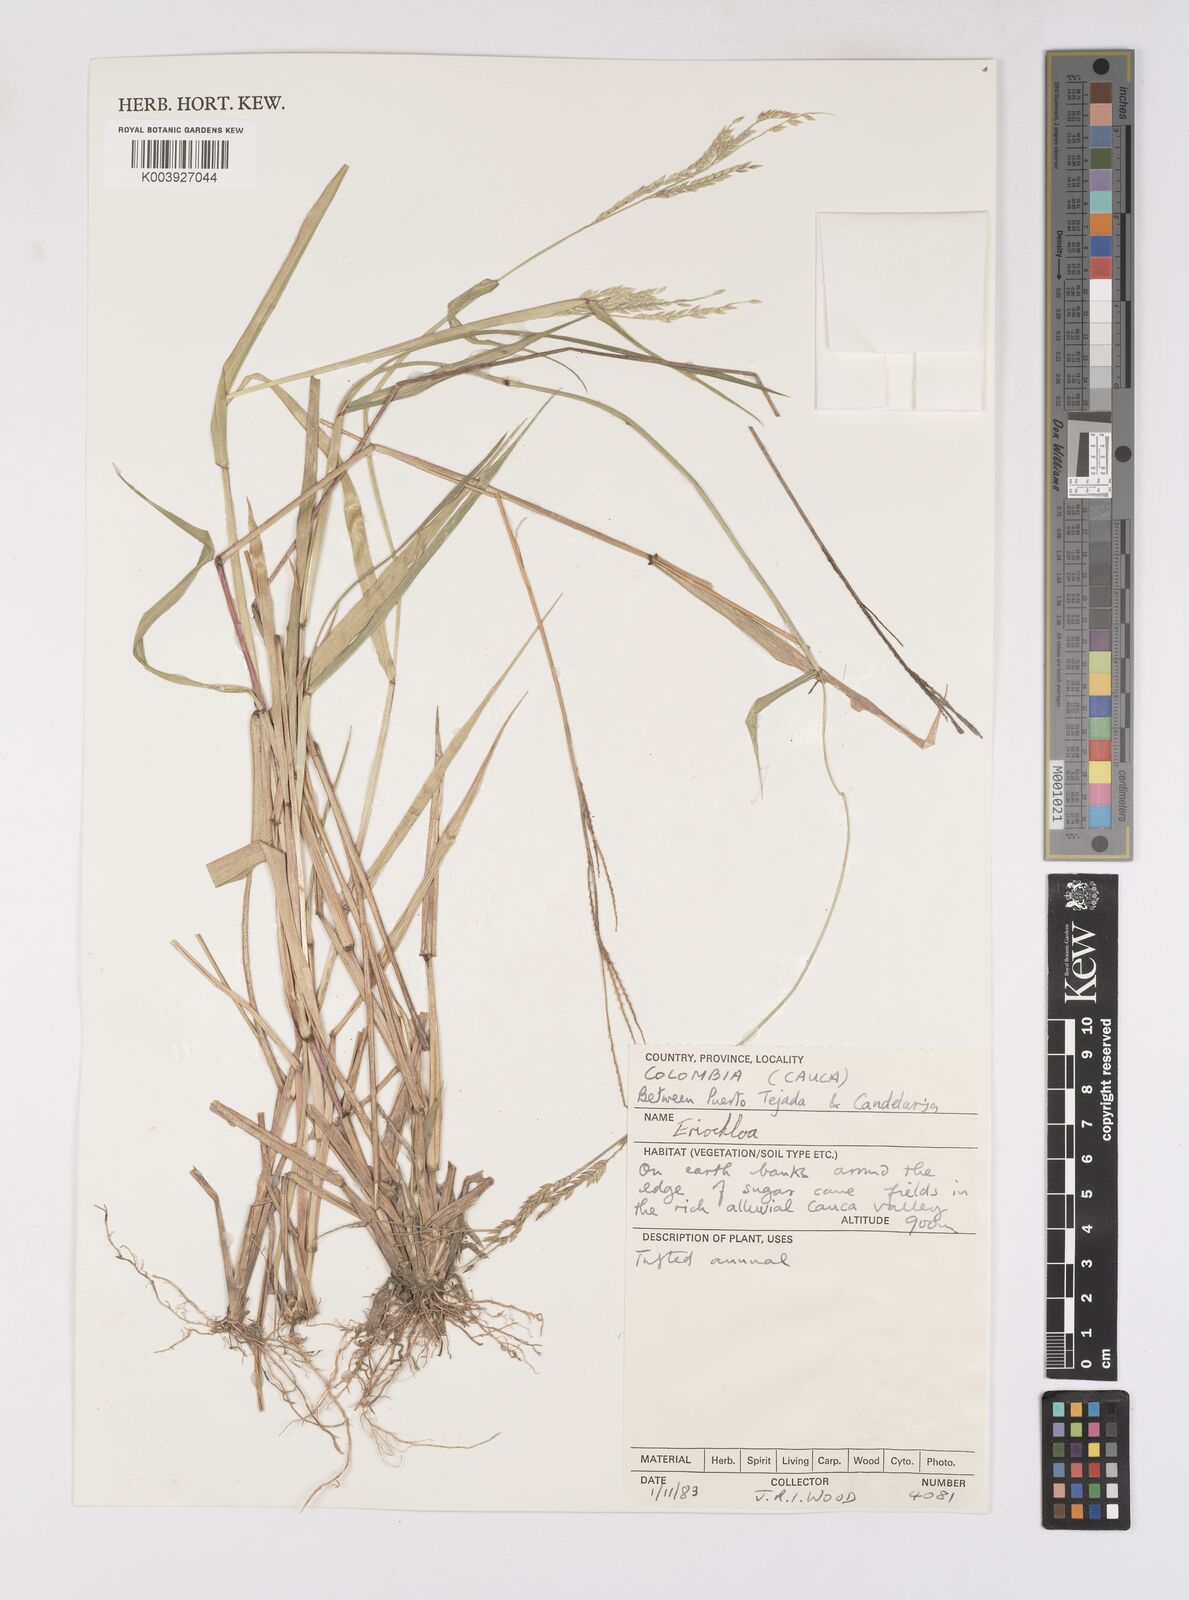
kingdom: Plantae
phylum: Tracheophyta
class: Liliopsida
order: Poales
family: Poaceae
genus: Eriochloa
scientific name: Eriochloa punctata
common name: Louisiana cupgrass
